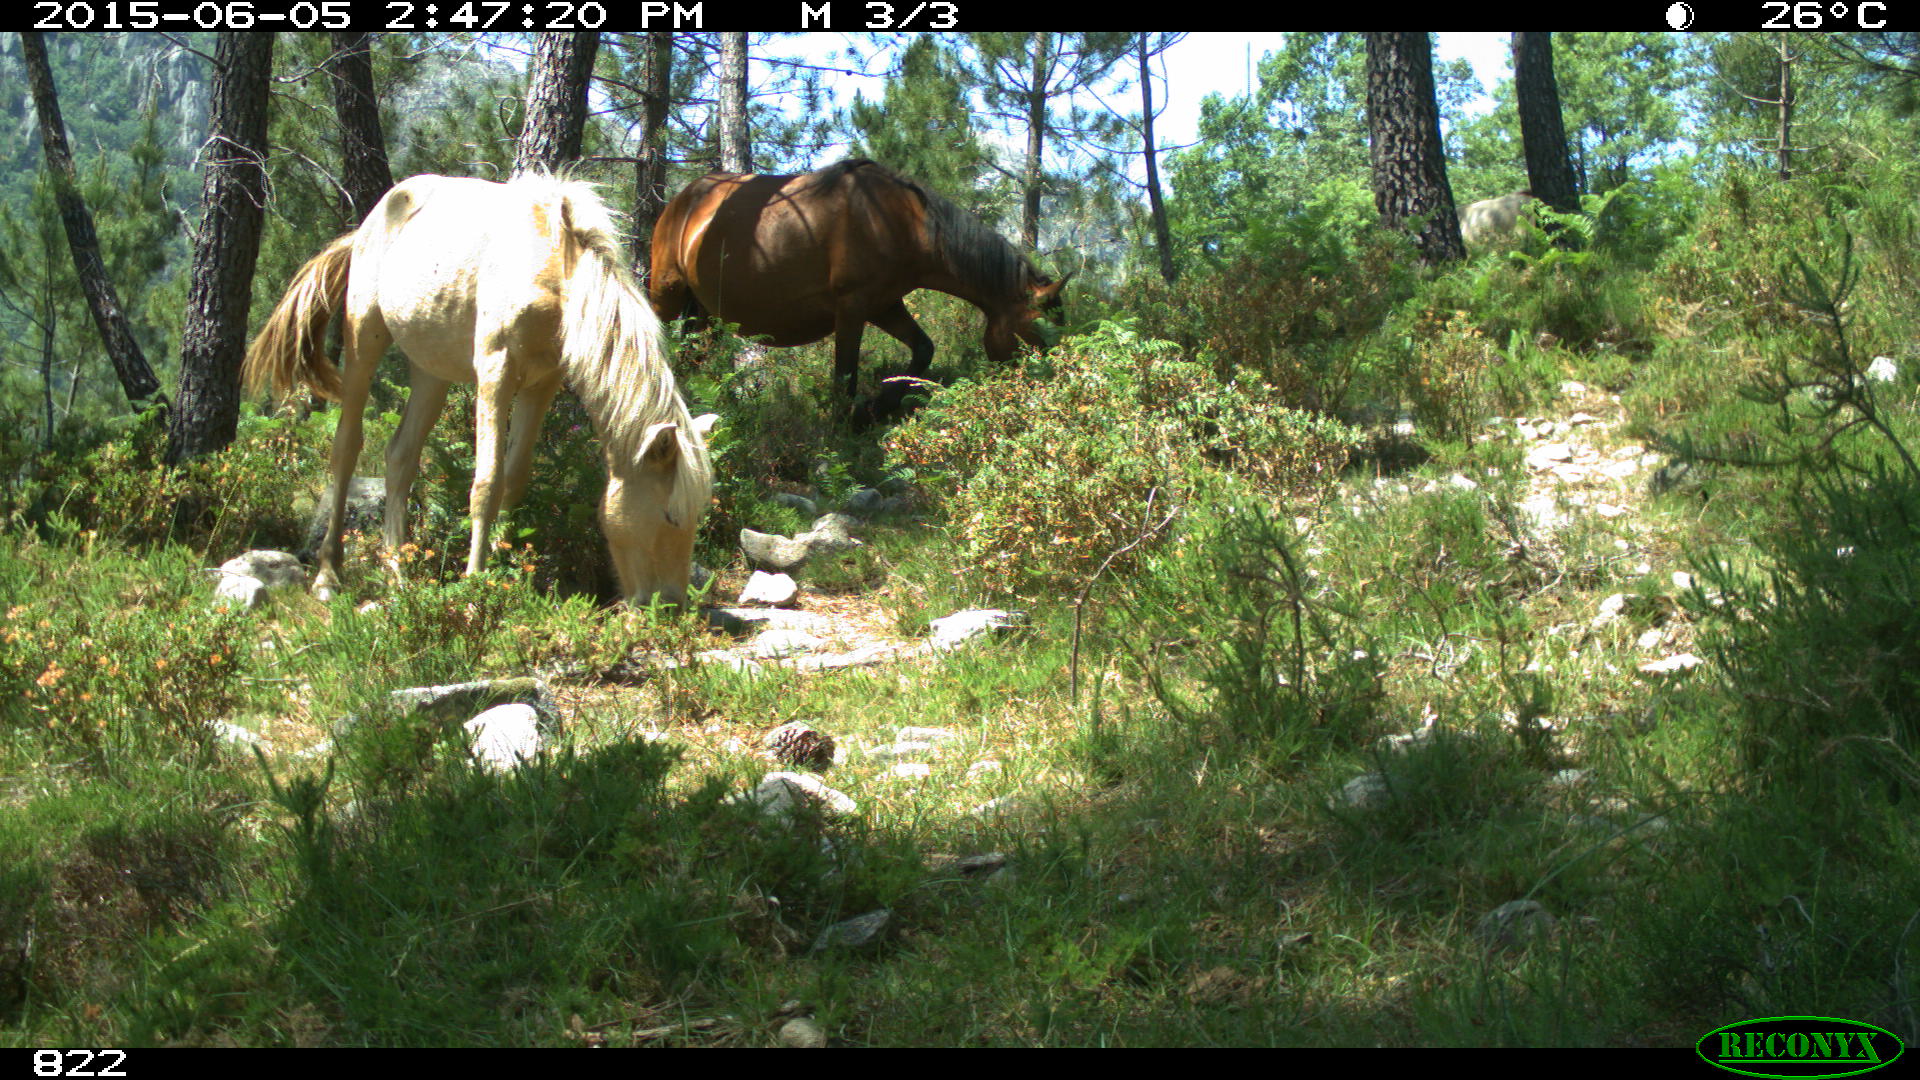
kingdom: Animalia
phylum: Chordata
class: Mammalia
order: Perissodactyla
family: Equidae
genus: Equus
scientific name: Equus caballus
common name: Horse
